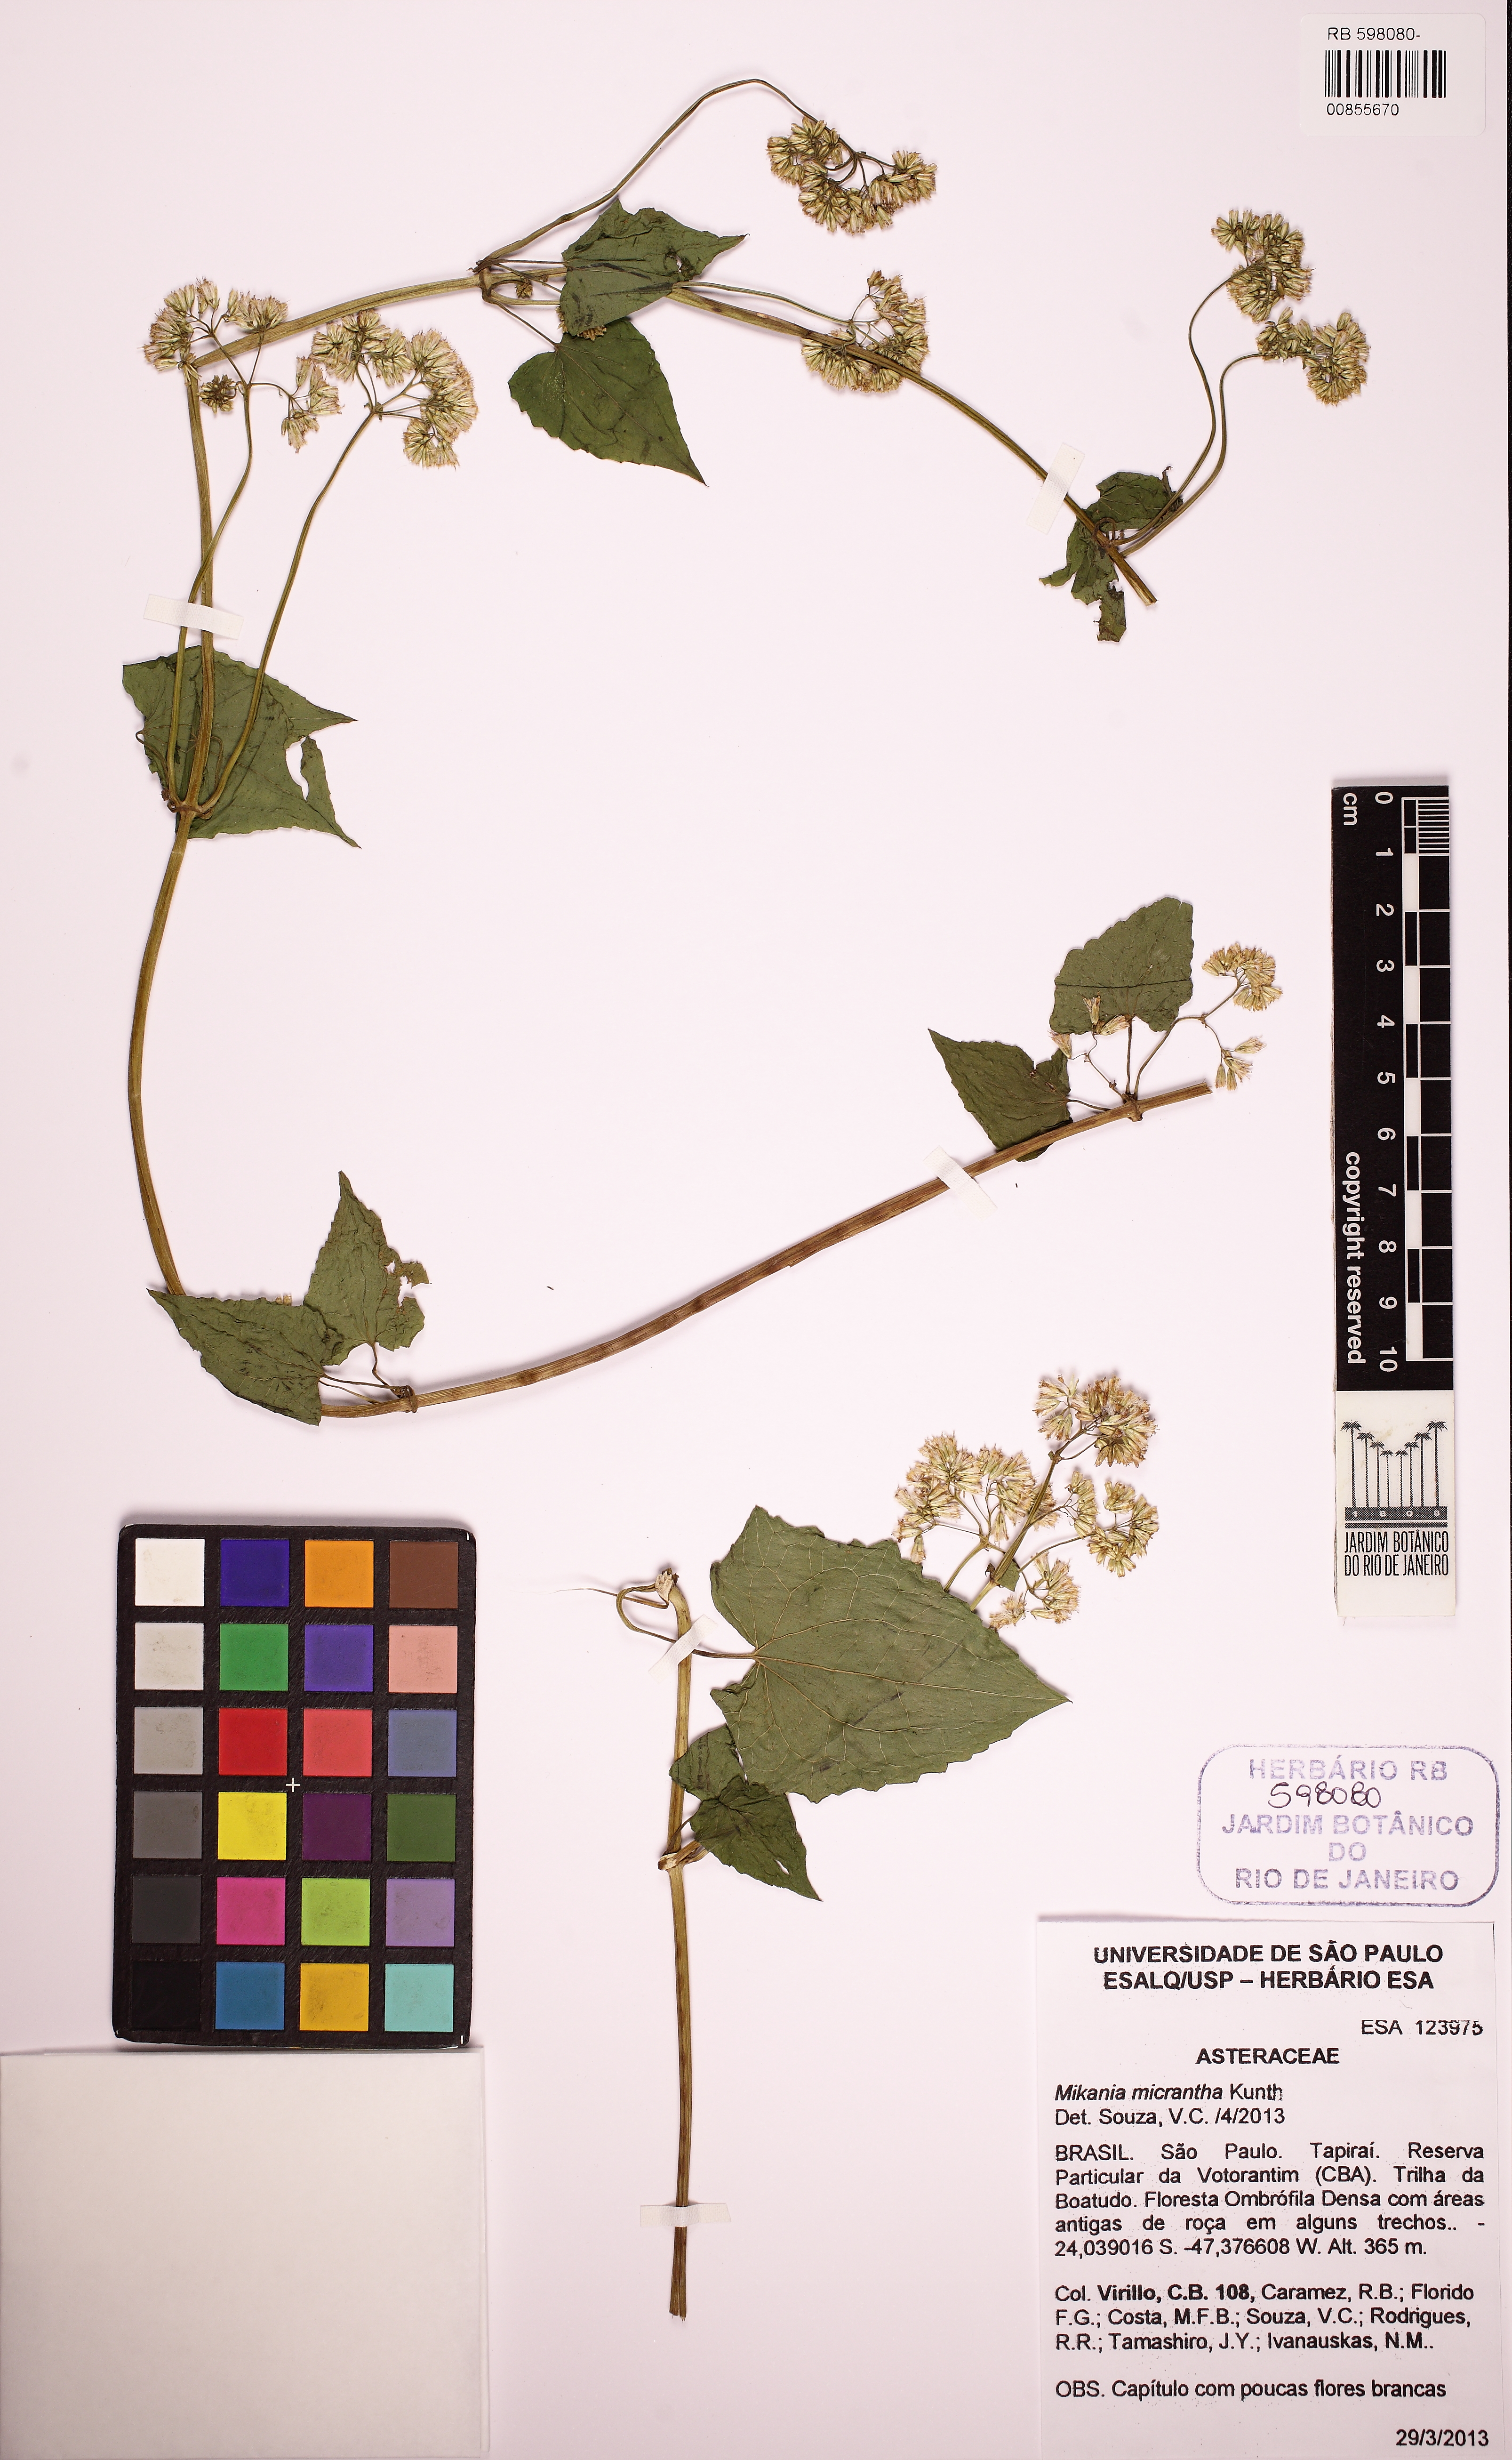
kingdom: Plantae
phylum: Tracheophyta
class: Magnoliopsida
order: Asterales
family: Asteraceae
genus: Mikania
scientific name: Mikania micrantha
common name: Mile-a-minute
